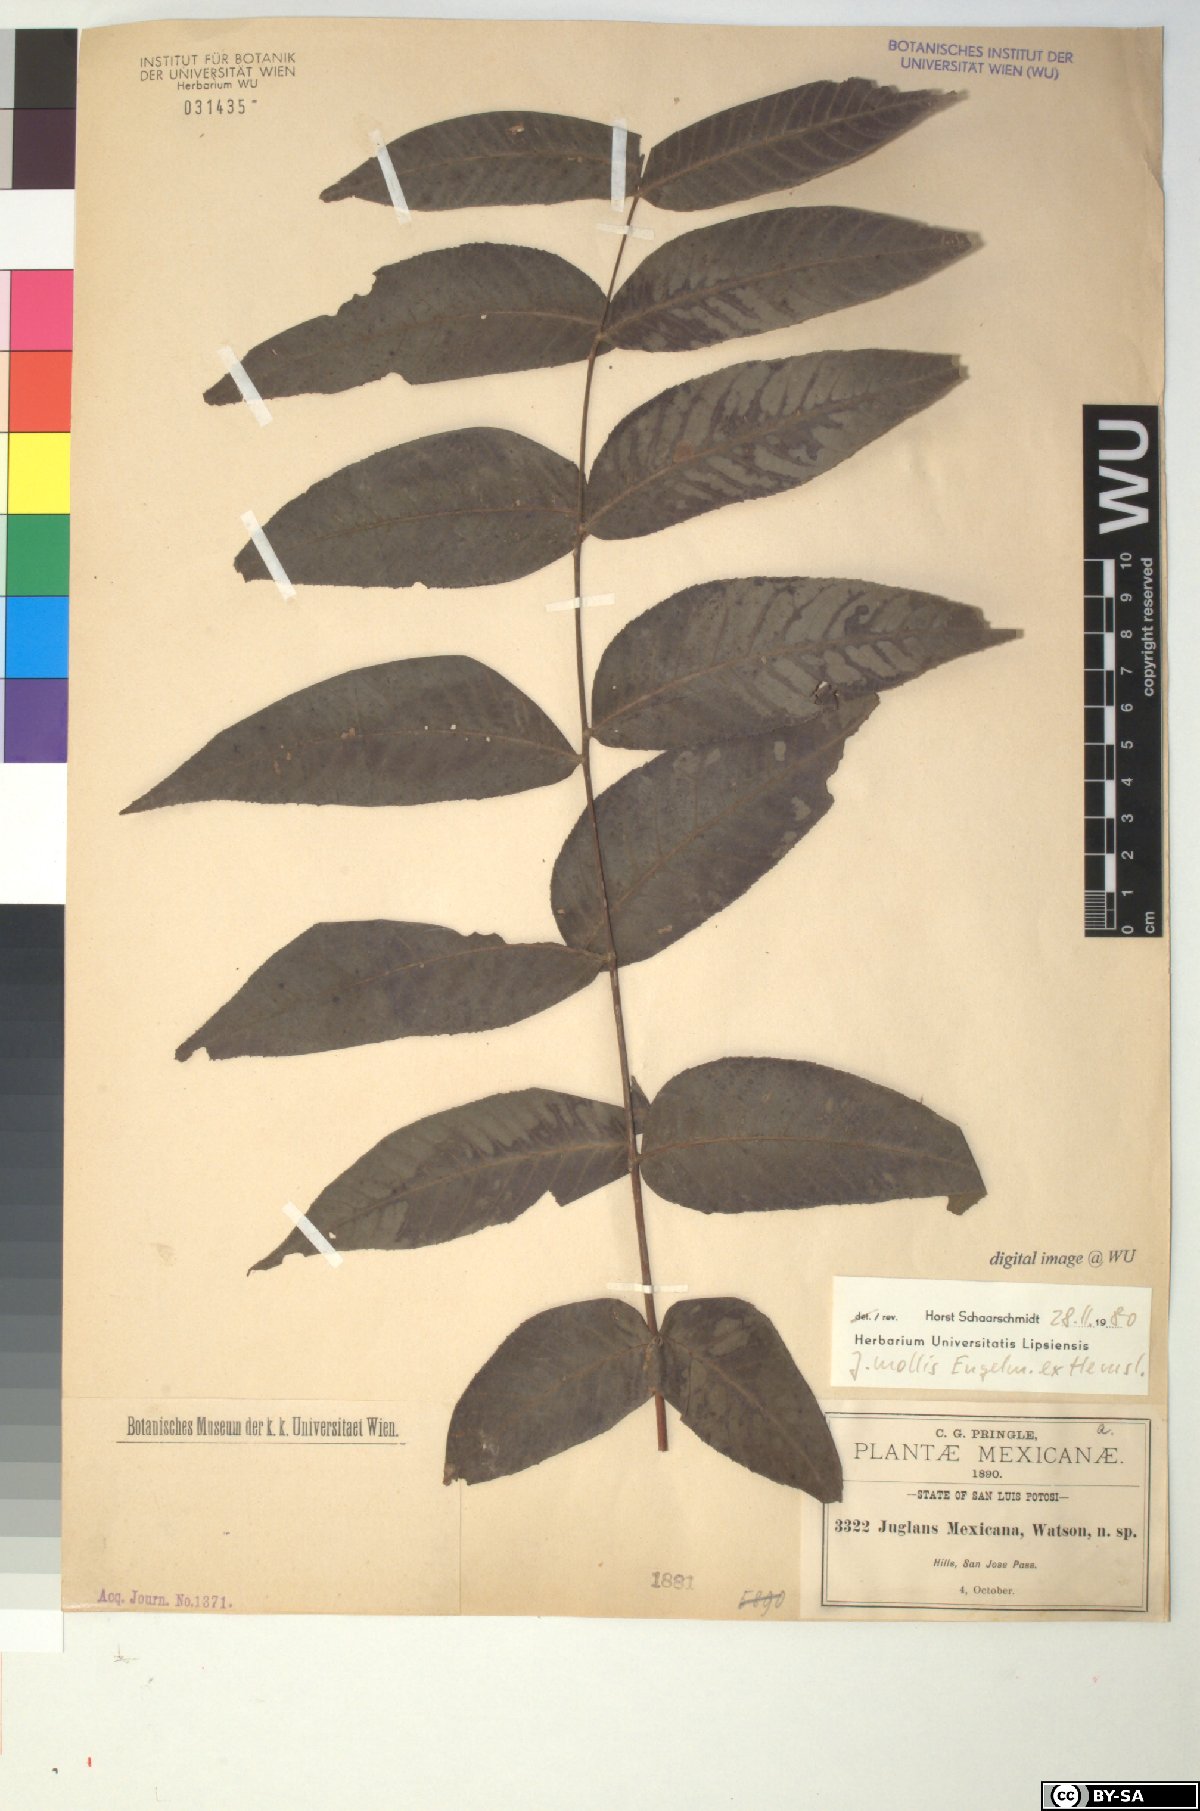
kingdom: Plantae
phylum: Tracheophyta
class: Magnoliopsida
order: Fagales
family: Juglandaceae
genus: Juglans
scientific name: Juglans mollis
